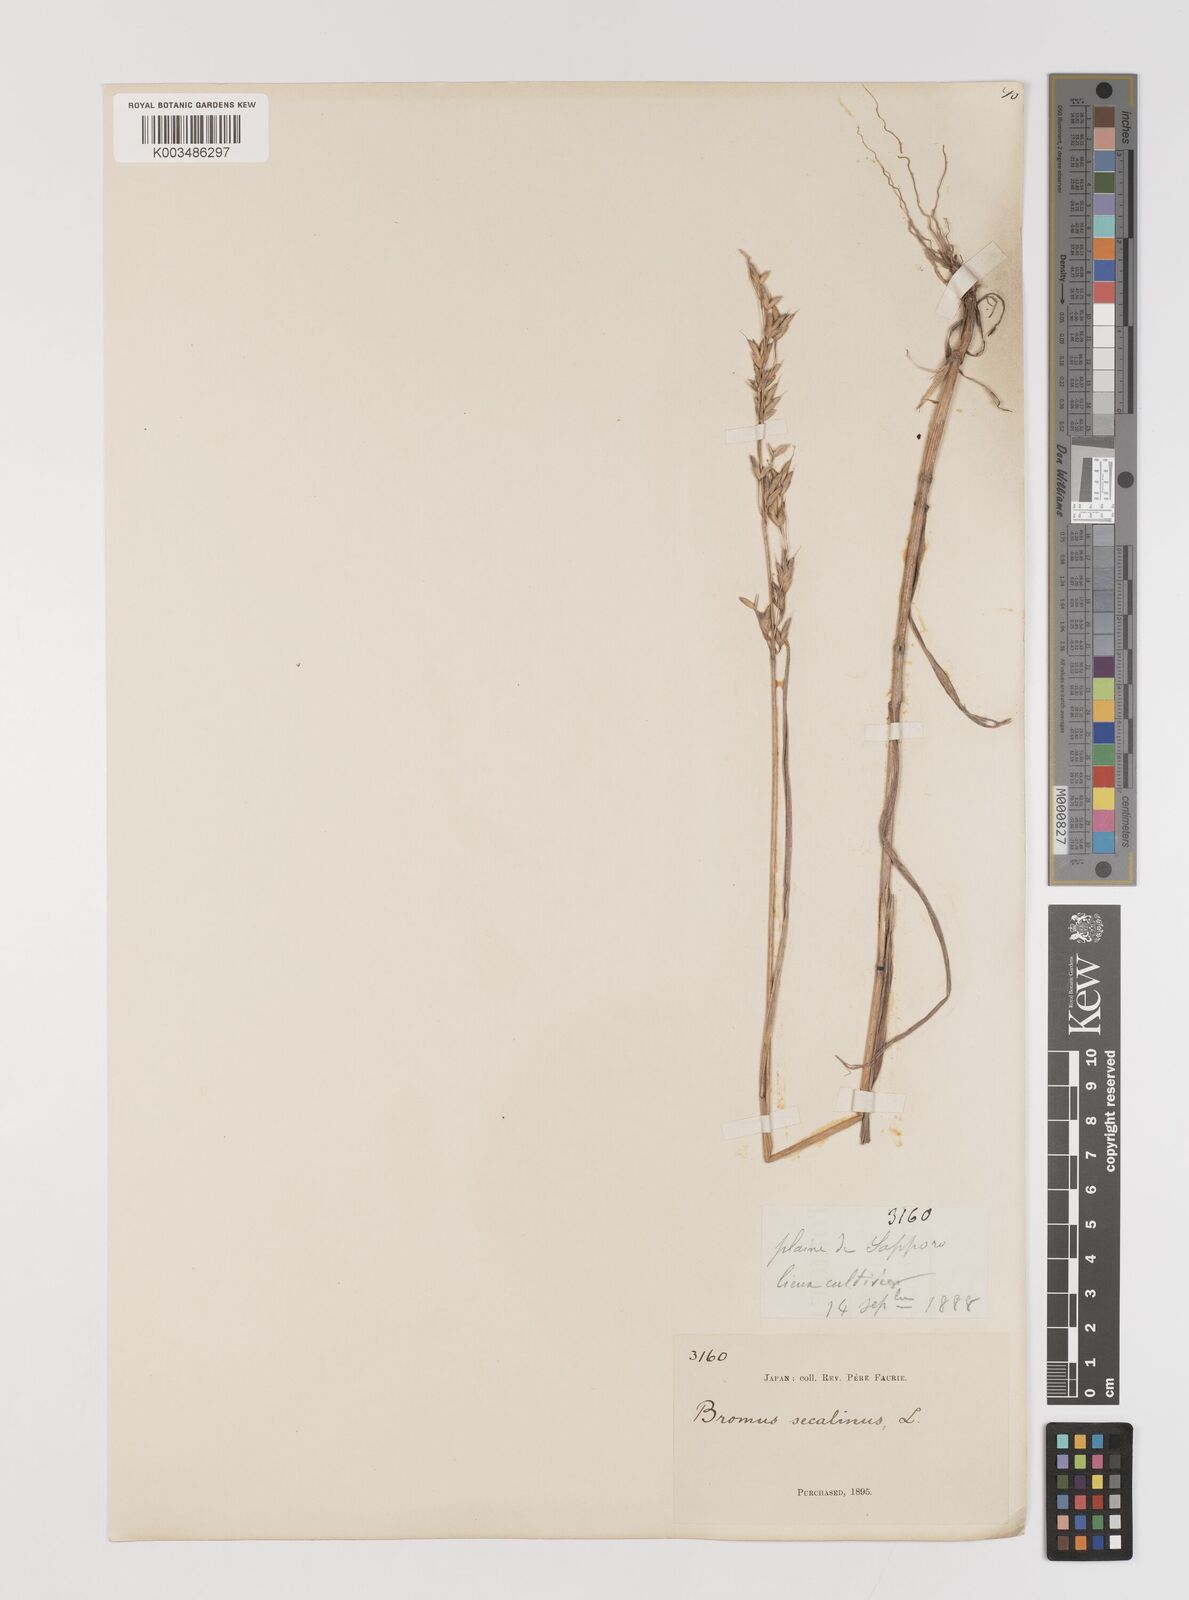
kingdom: Plantae
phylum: Tracheophyta
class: Liliopsida
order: Poales
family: Poaceae
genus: Bromus
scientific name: Bromus secalinus
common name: Rye brome
